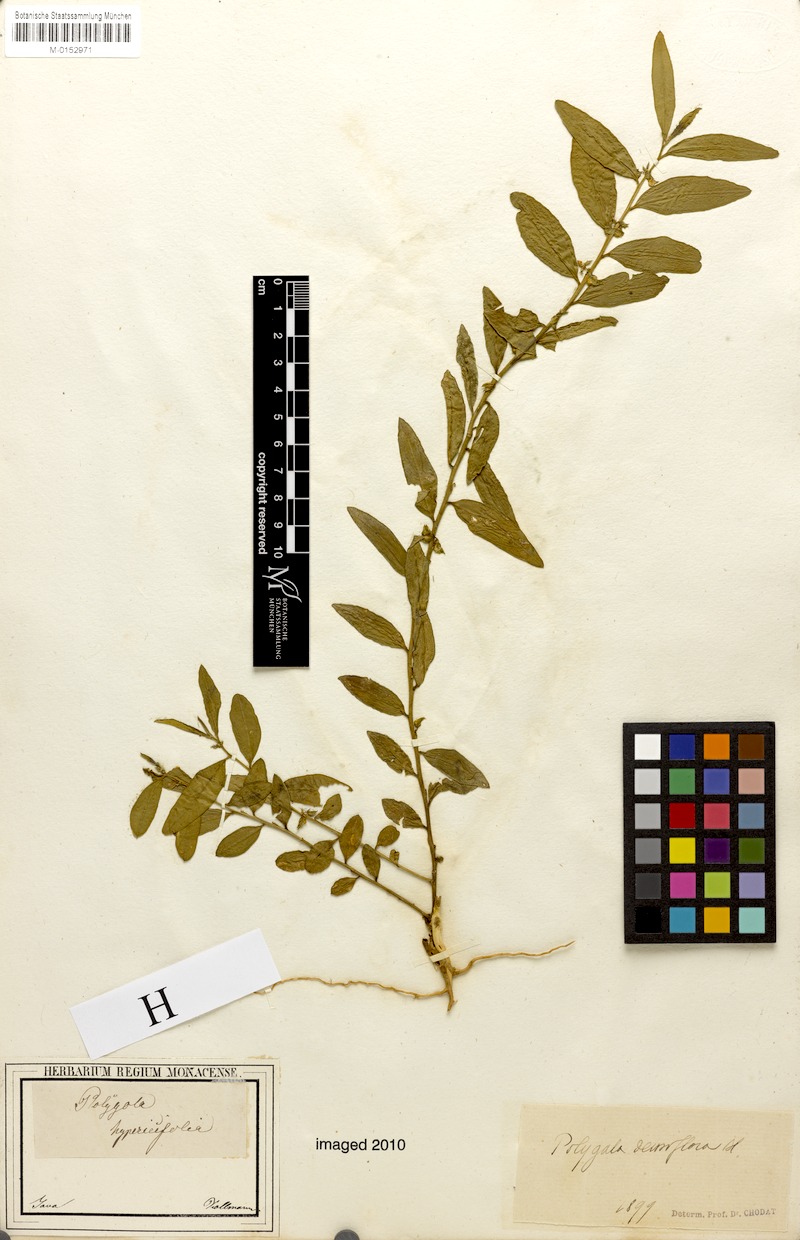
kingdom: Plantae
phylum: Tracheophyta
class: Magnoliopsida
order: Fabales
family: Polygalaceae
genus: Polygala
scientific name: Polygala glomerata
